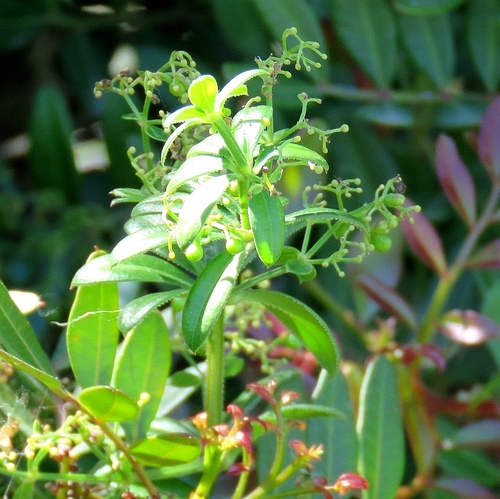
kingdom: Plantae
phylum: Tracheophyta
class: Magnoliopsida
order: Gentianales
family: Rubiaceae
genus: Rubia
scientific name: Rubia peregrina
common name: Wild madder
